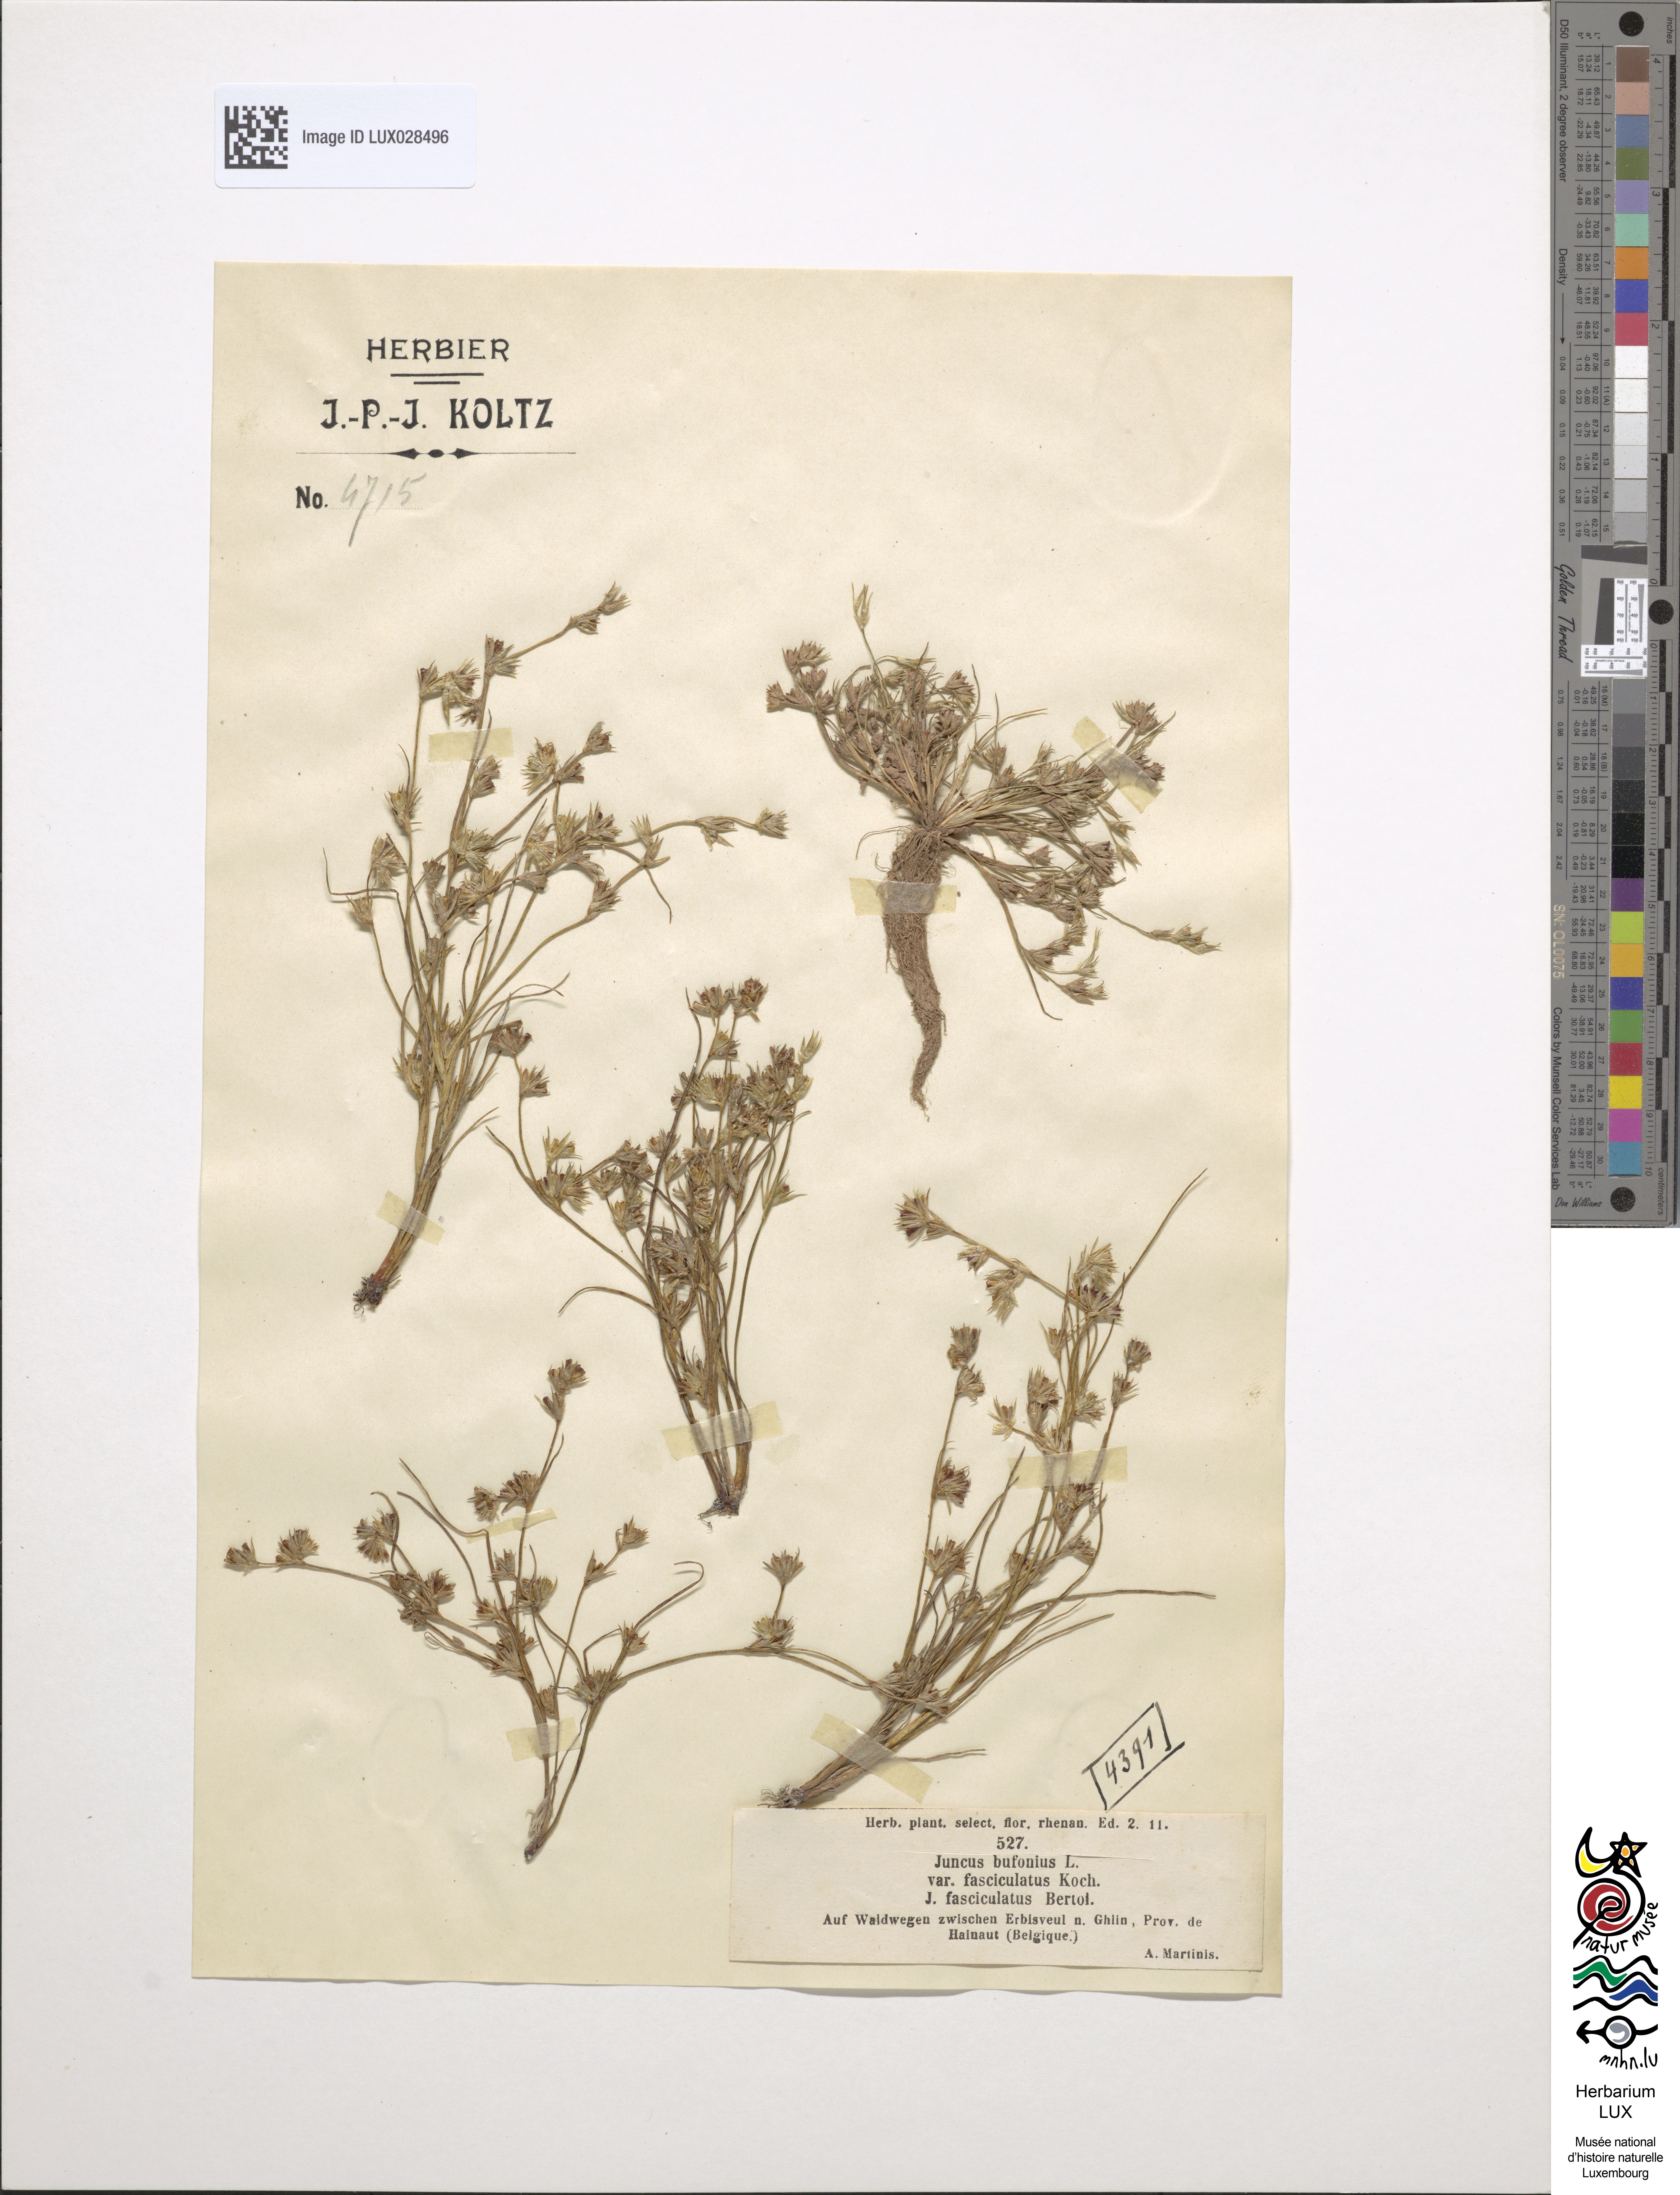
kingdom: Plantae
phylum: Tracheophyta
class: Liliopsida
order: Poales
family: Juncaceae
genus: Juncus
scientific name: Juncus bufonius
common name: Toad rush
